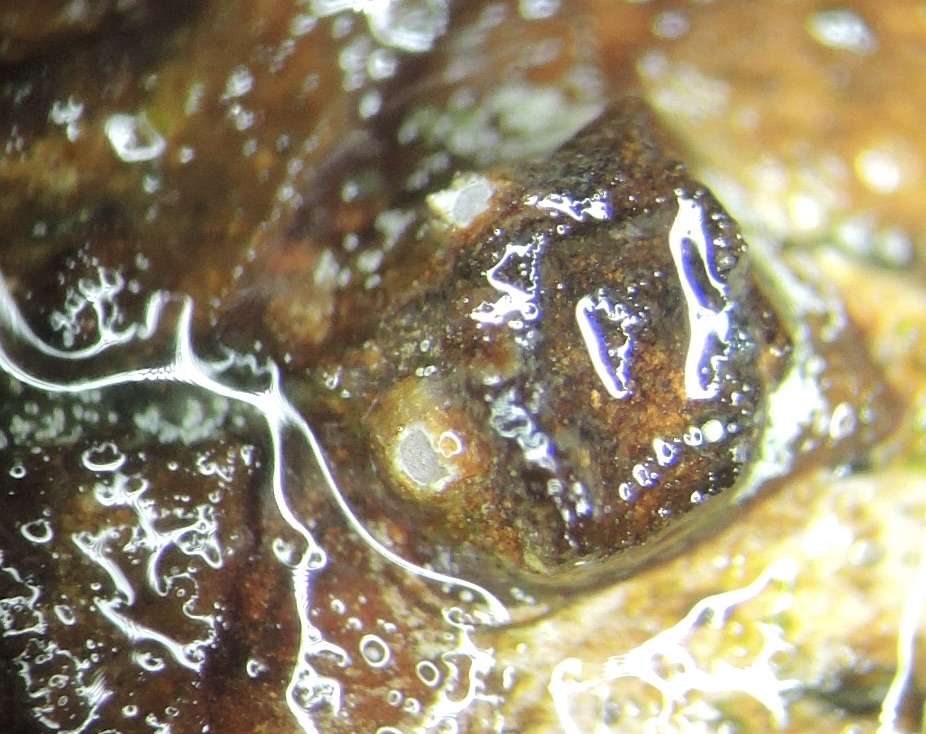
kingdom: Fungi
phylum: Ascomycota
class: Lecanoromycetes
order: Ostropales
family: Stictidaceae
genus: Karstenia
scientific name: Karstenia rhopaloides
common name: grårosa barkhul
